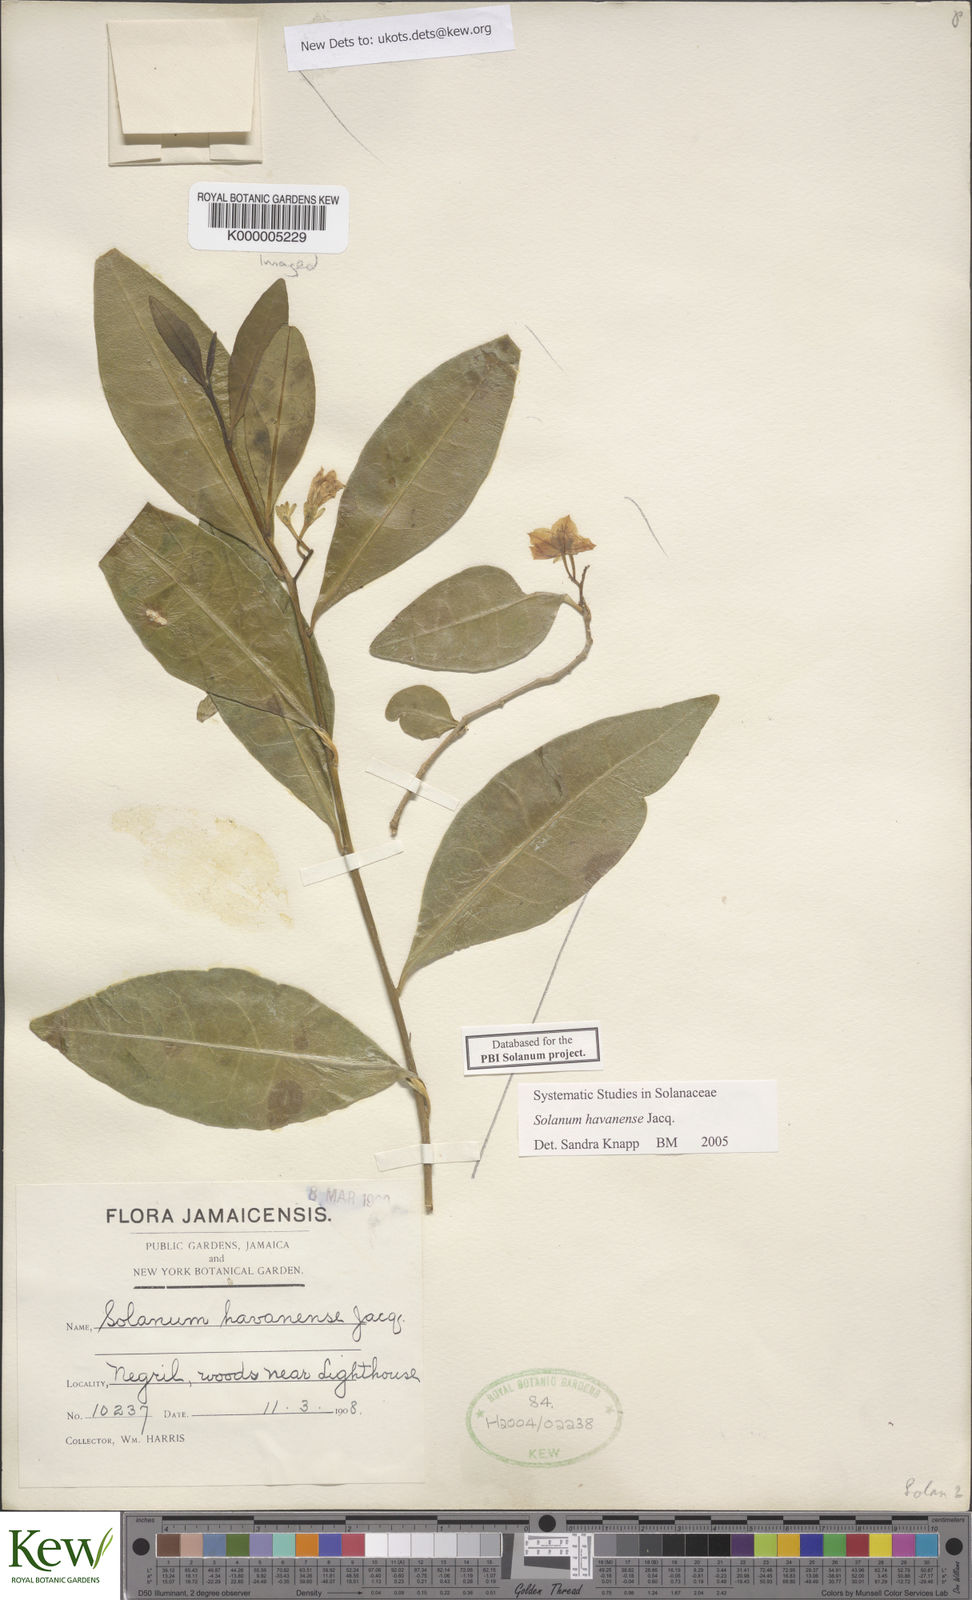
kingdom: Plantae
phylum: Tracheophyta
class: Magnoliopsida
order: Solanales
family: Solanaceae
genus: Solanum
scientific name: Solanum havanense
